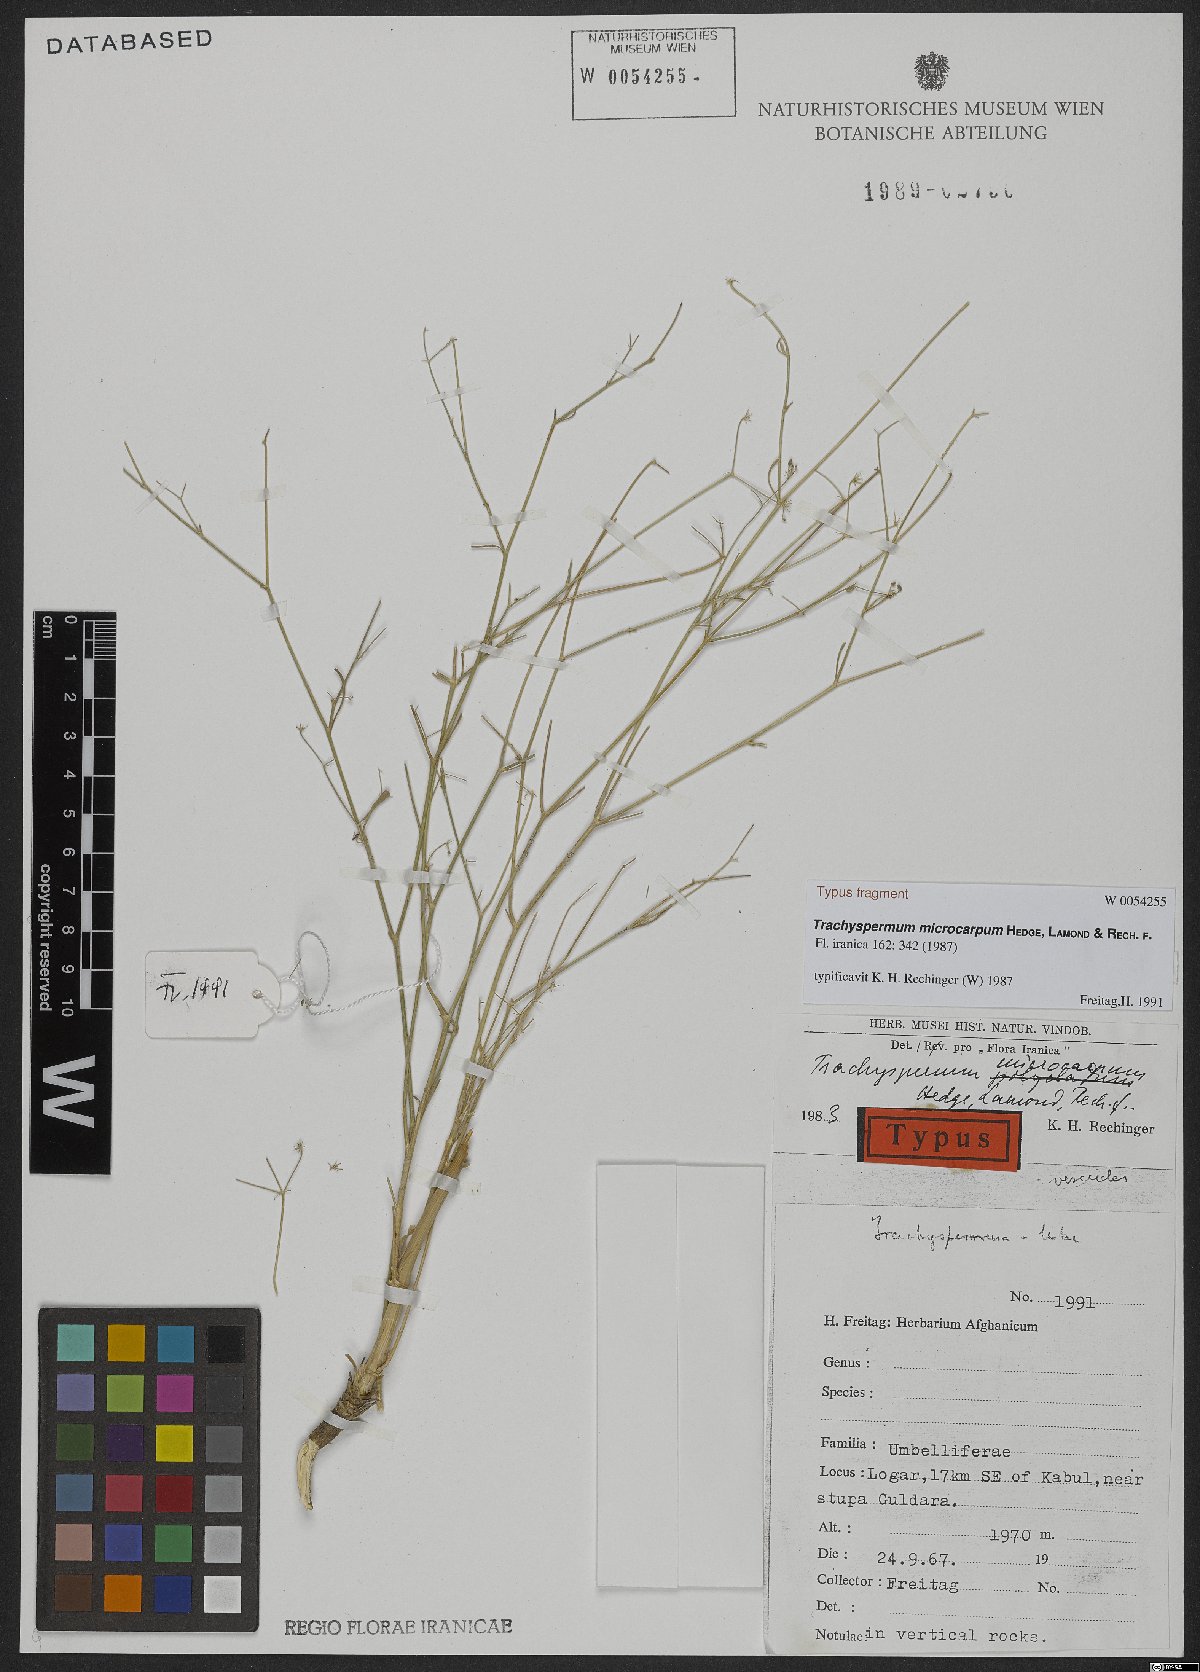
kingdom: Plantae
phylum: Tracheophyta
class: Magnoliopsida
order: Apiales
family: Apiaceae
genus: Psammogeton
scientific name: Psammogeton microcarpum
